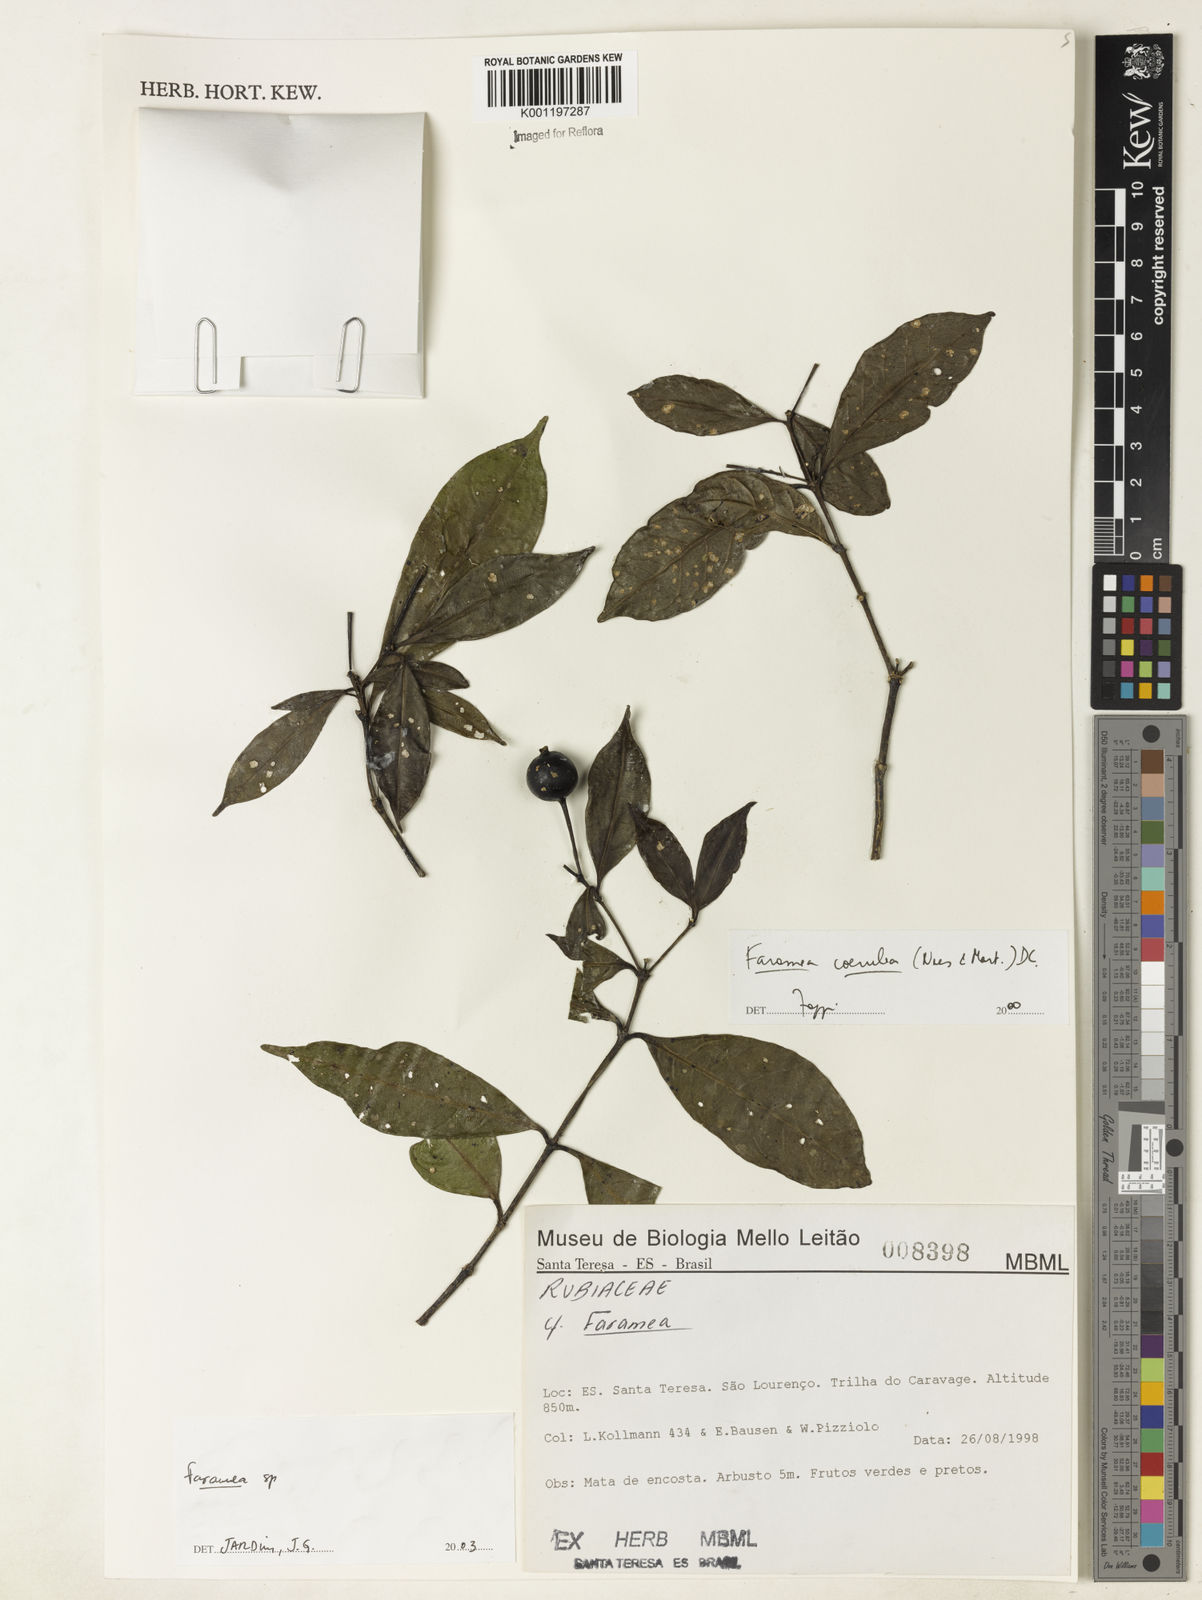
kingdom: Plantae
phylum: Tracheophyta
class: Magnoliopsida
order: Gentianales
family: Rubiaceae
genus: Faramea
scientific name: Faramea
